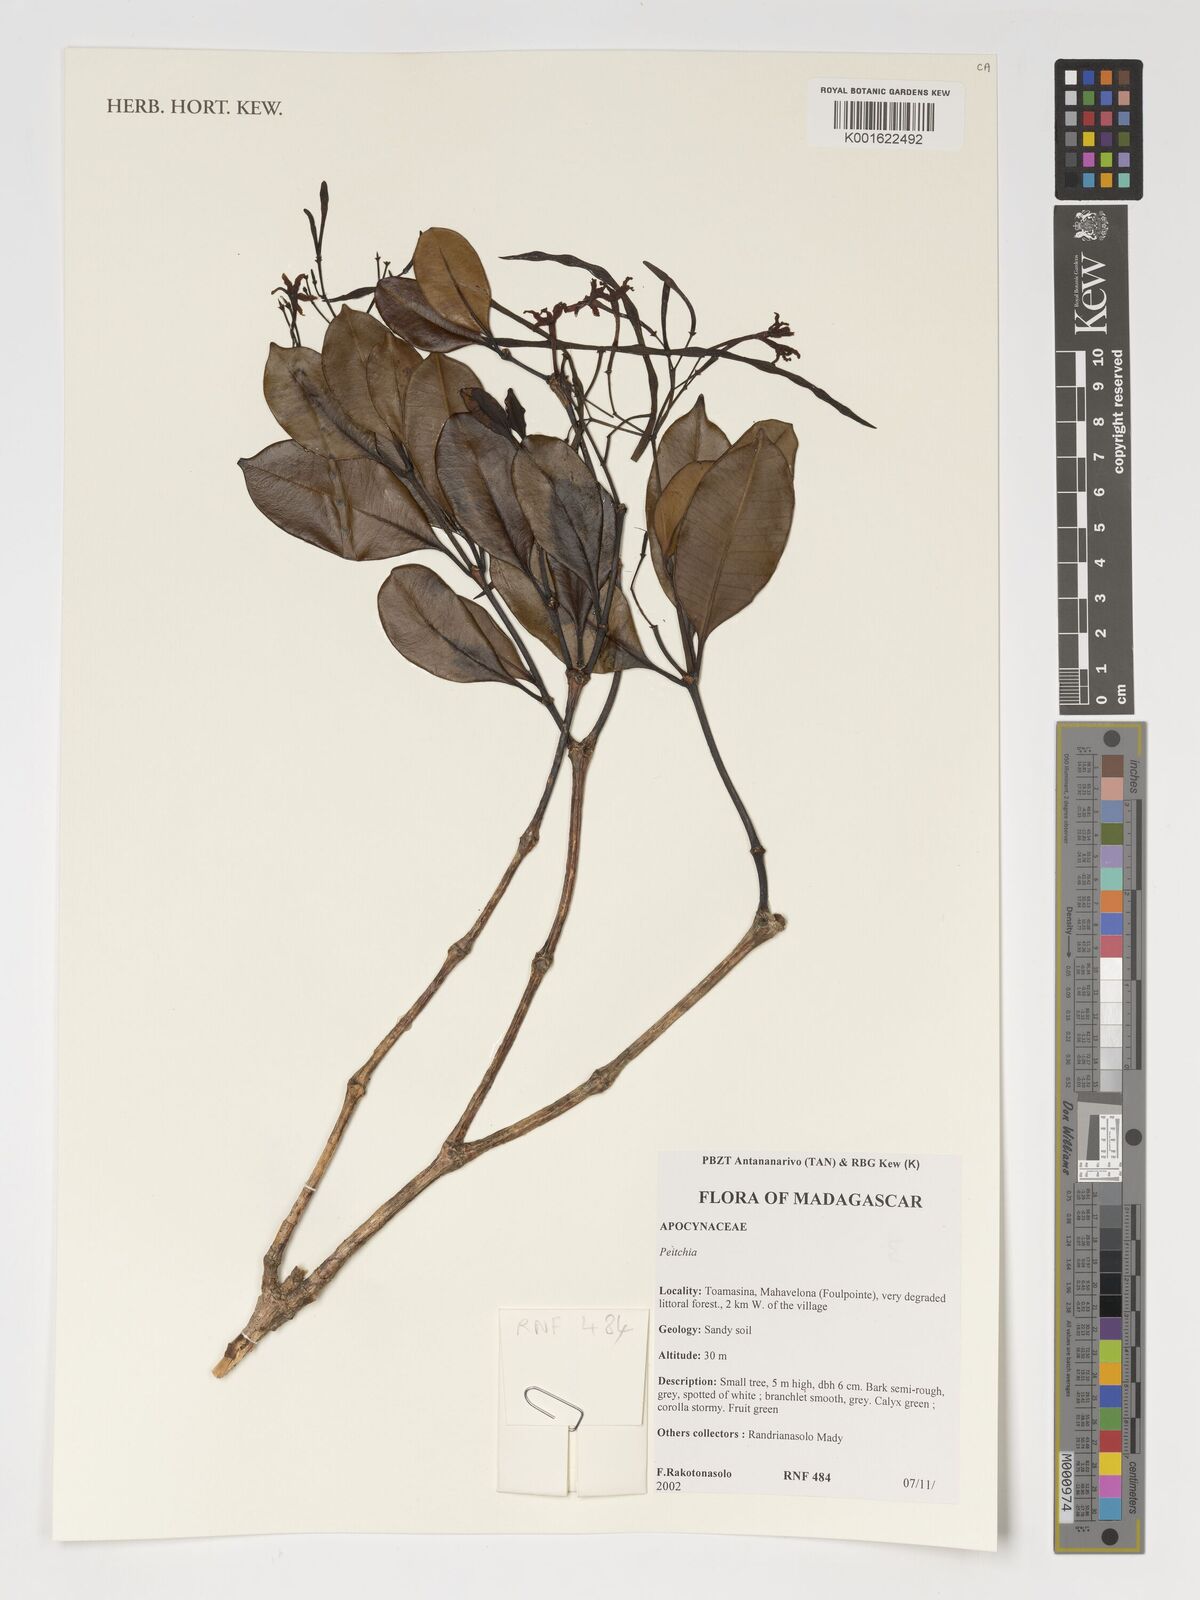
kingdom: Plantae
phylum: Tracheophyta
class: Magnoliopsida
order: Gentianales
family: Apocynaceae
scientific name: Apocynaceae
